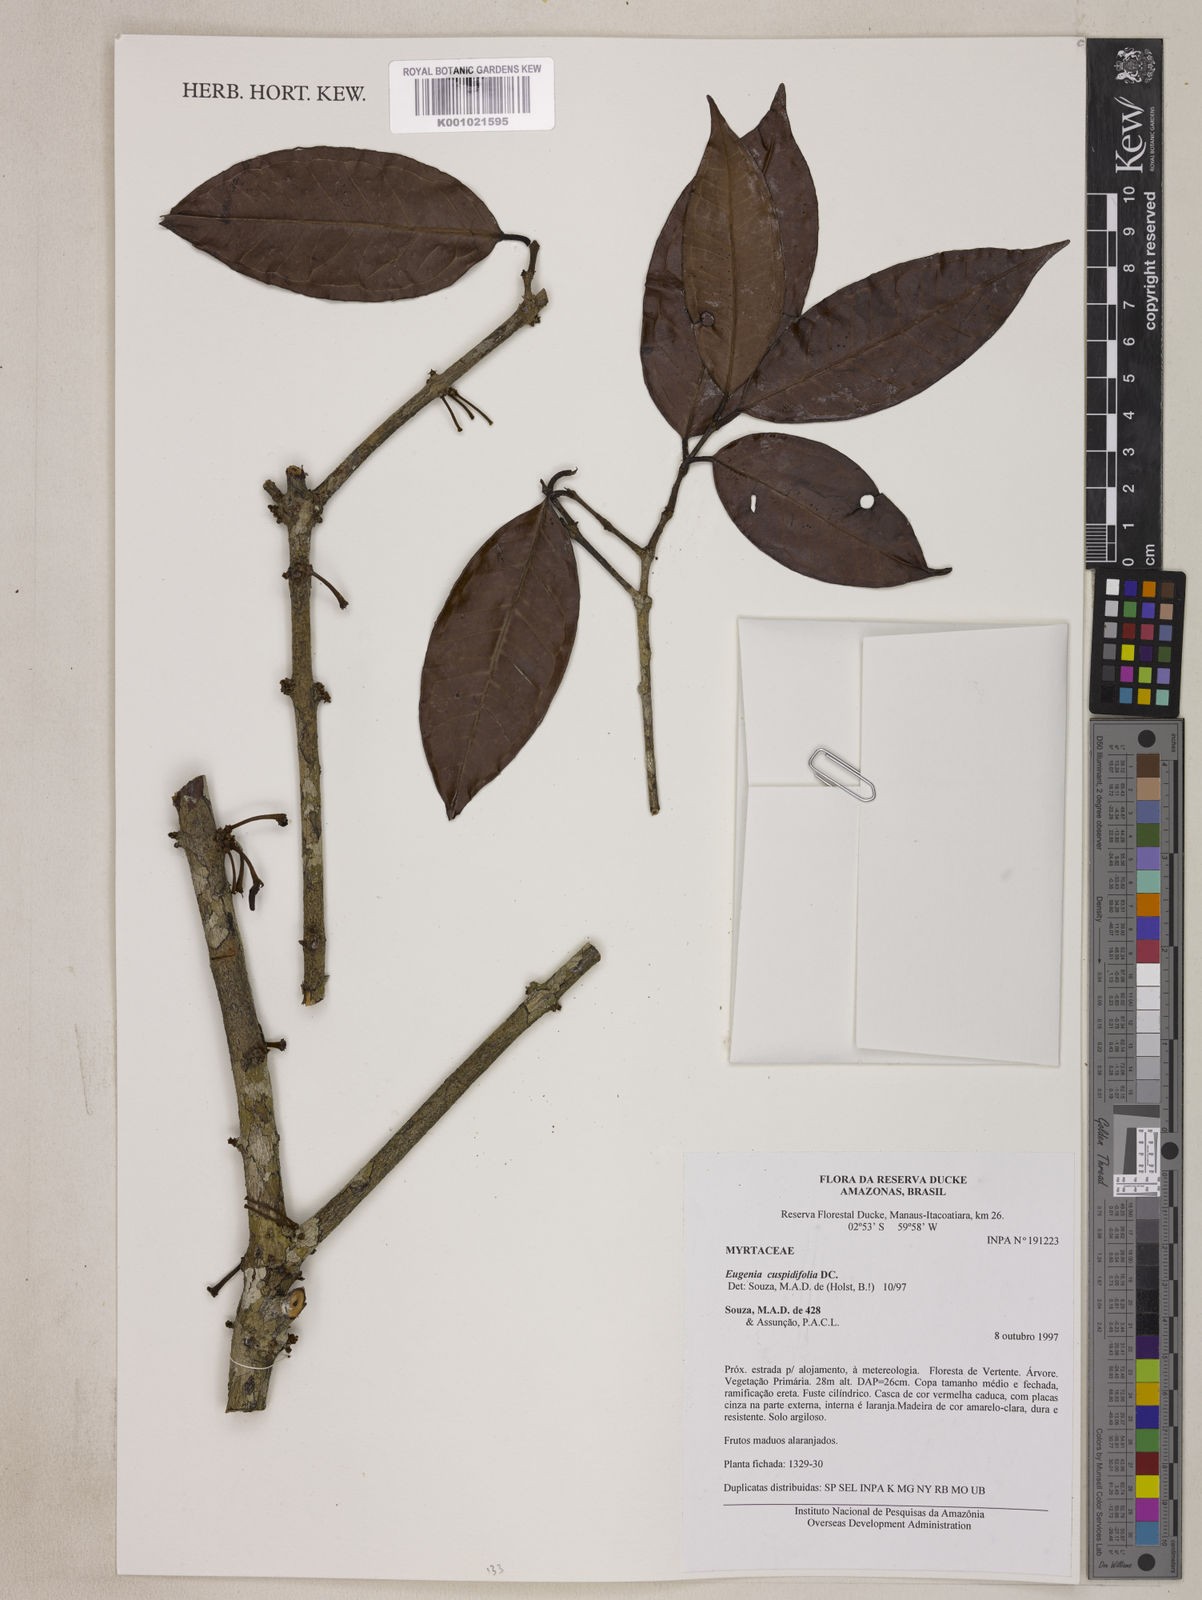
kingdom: Plantae
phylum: Tracheophyta
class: Magnoliopsida
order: Myrtales
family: Myrtaceae
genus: Eugenia
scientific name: Eugenia solimoensis
